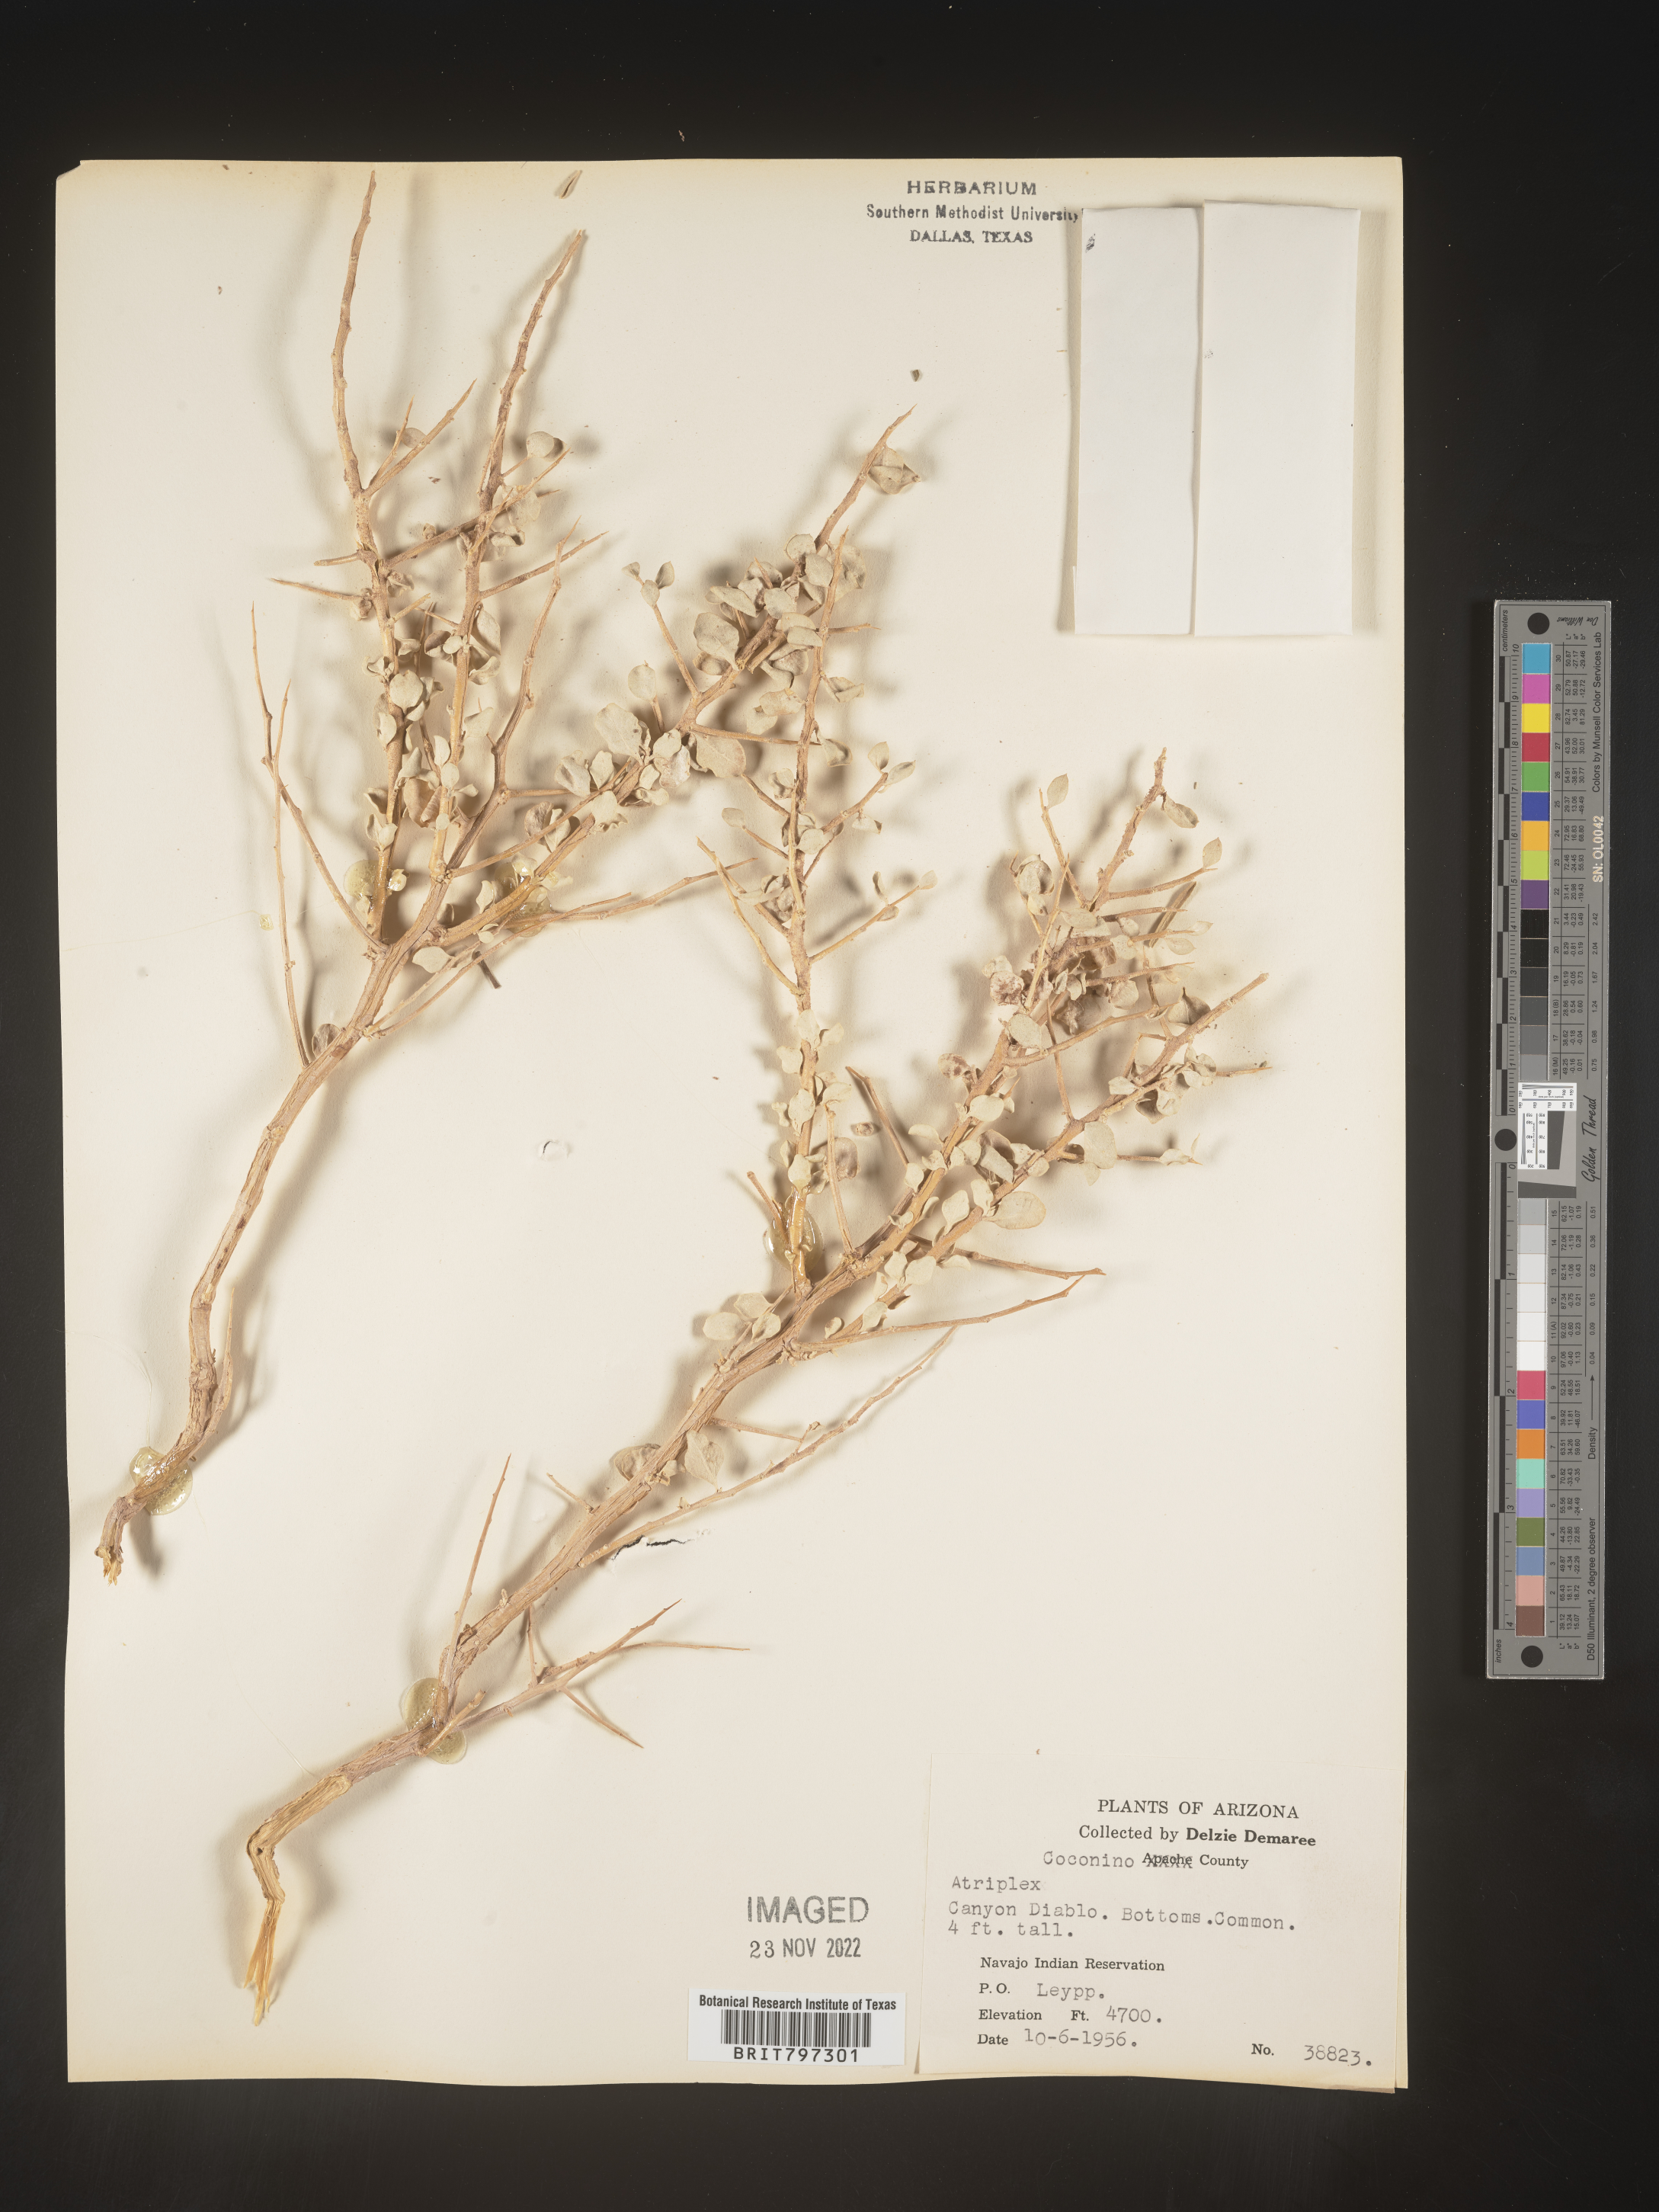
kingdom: Plantae
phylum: Tracheophyta
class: Magnoliopsida
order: Caryophyllales
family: Amaranthaceae
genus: Atriplex
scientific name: Atriplex
